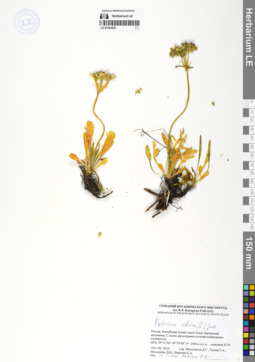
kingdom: Plantae
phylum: Tracheophyta
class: Magnoliopsida
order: Dipsacales
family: Caprifoliaceae
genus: Patrinia
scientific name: Patrinia sibirica
